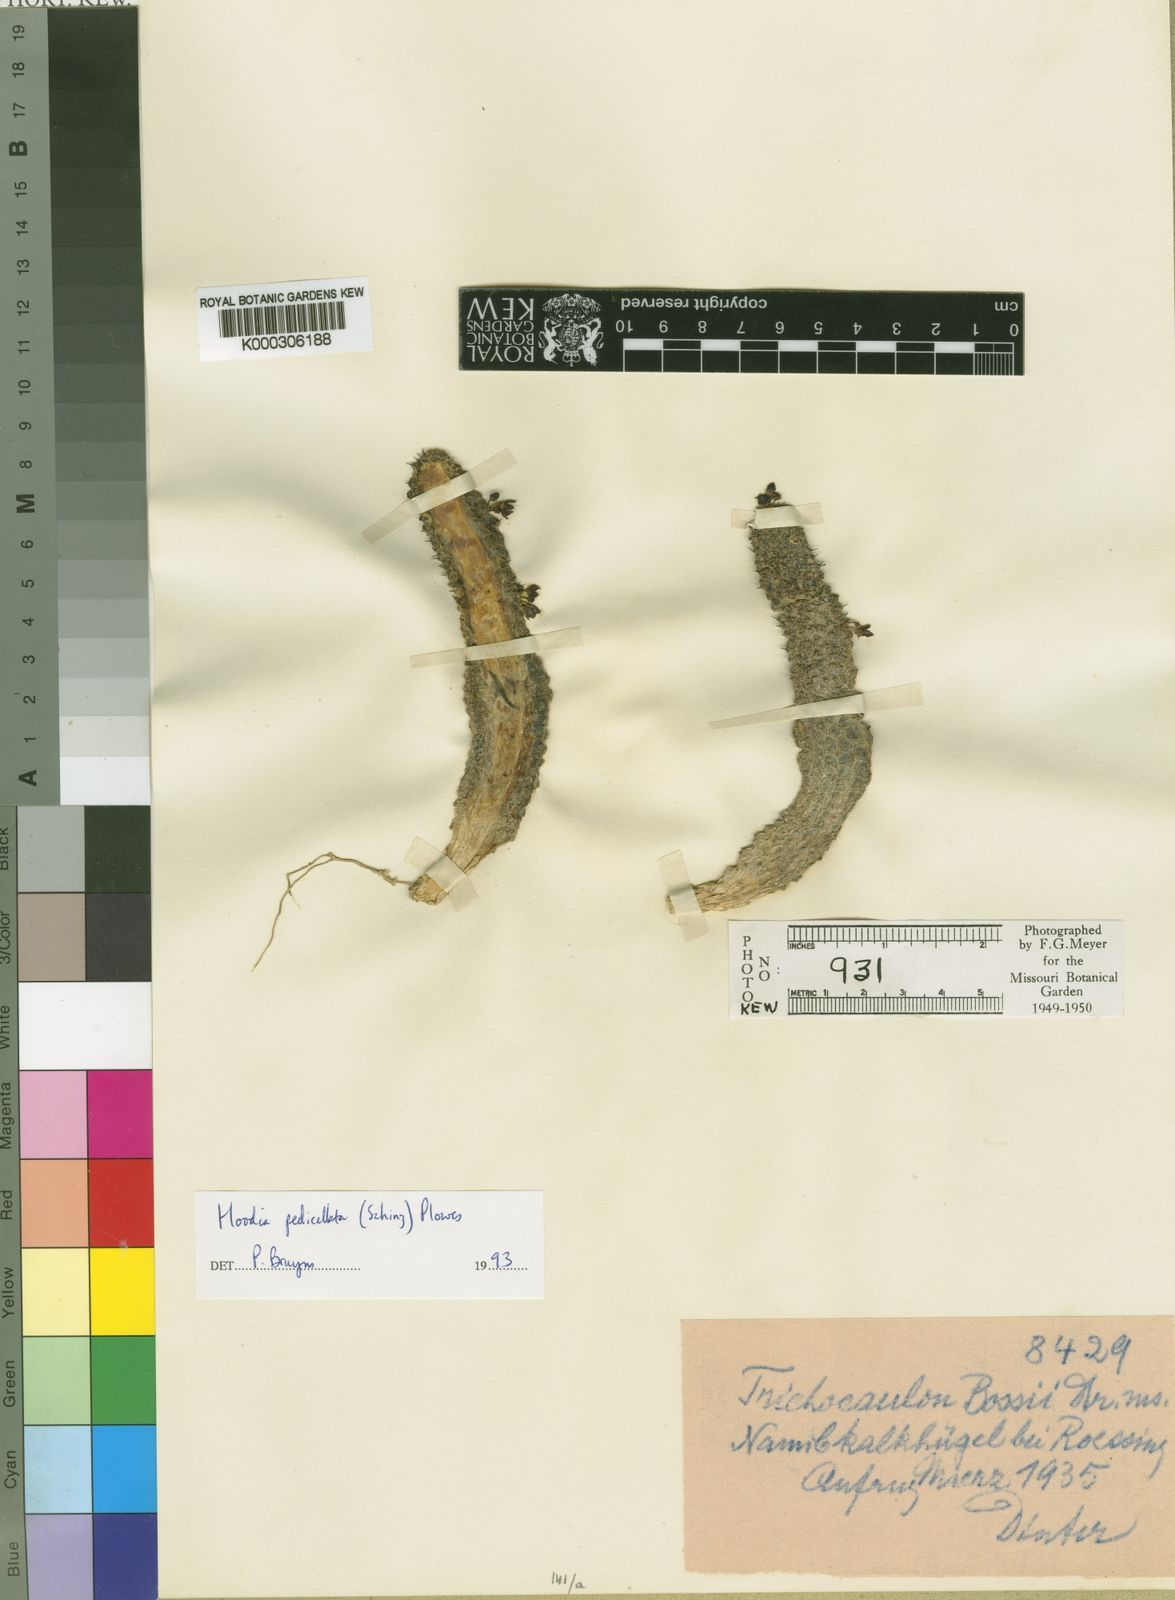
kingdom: Plantae
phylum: Tracheophyta
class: Magnoliopsida
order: Gentianales
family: Apocynaceae
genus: Ceropegia
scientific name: Ceropegia pedicellata
